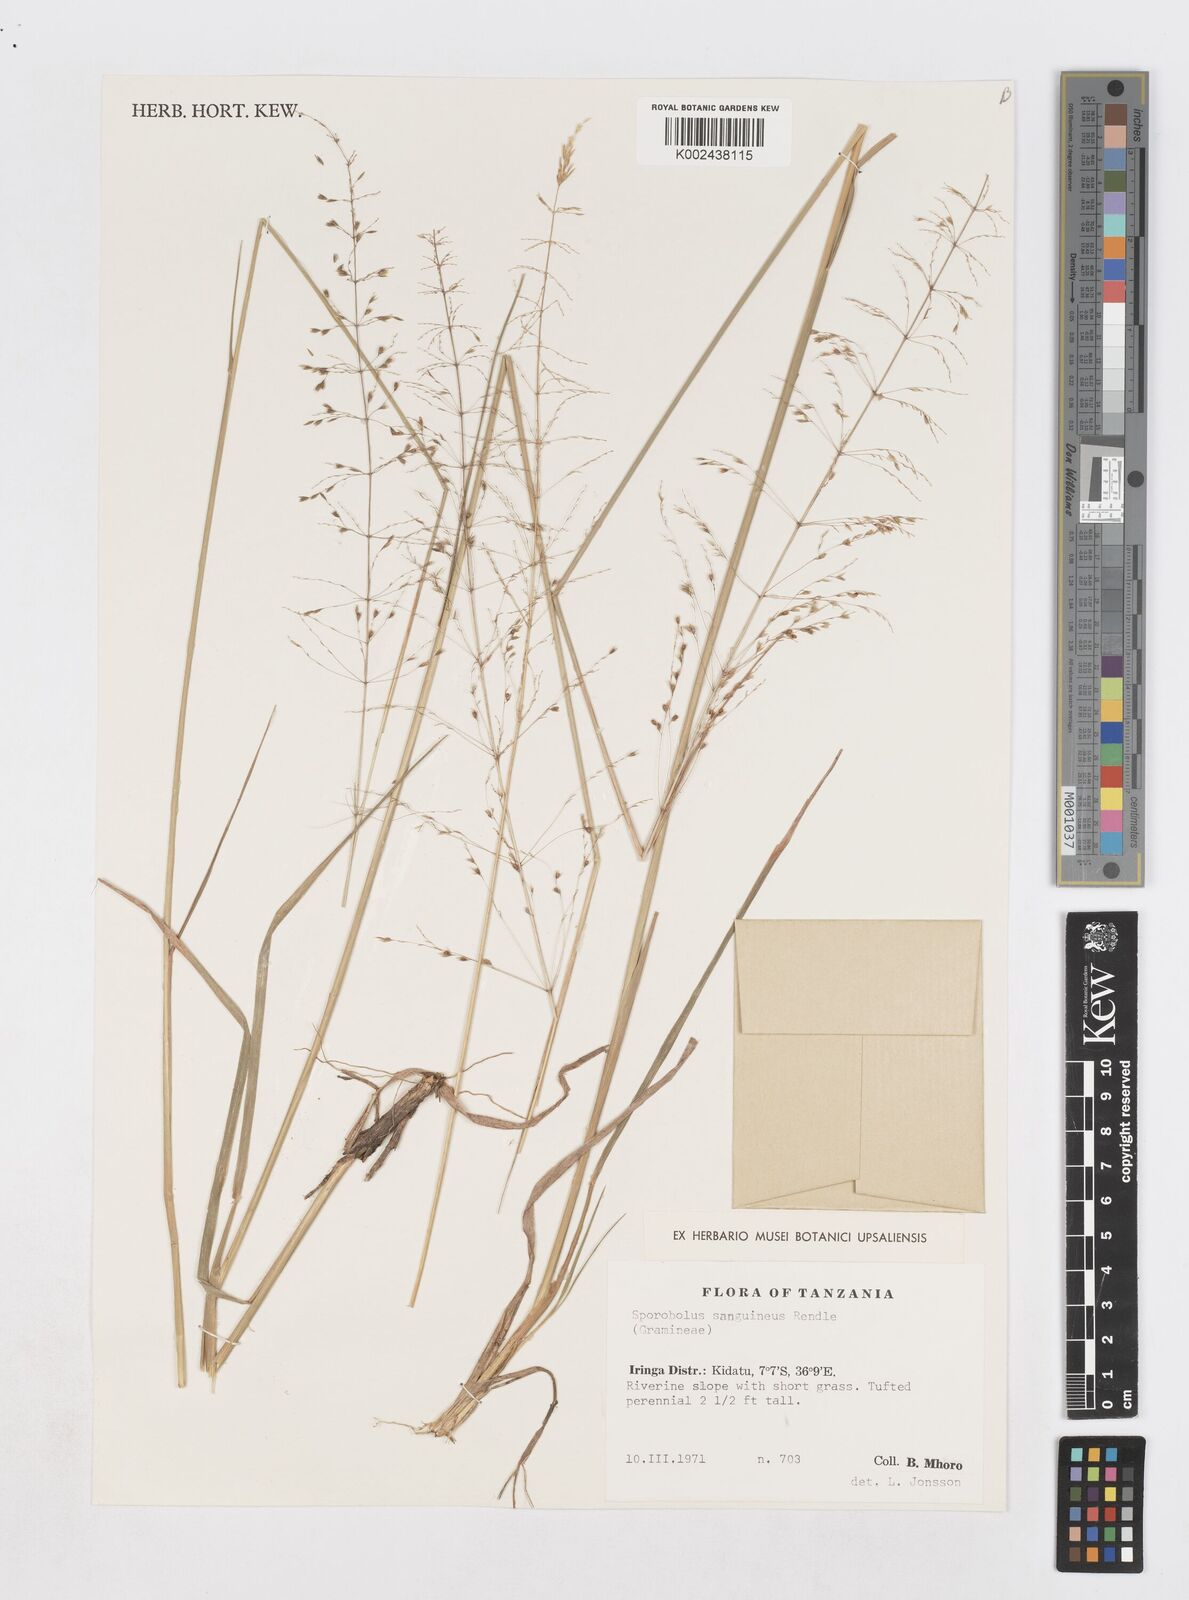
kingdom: Plantae
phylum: Tracheophyta
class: Liliopsida
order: Poales
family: Poaceae
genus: Sporobolus
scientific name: Sporobolus sanguineus
